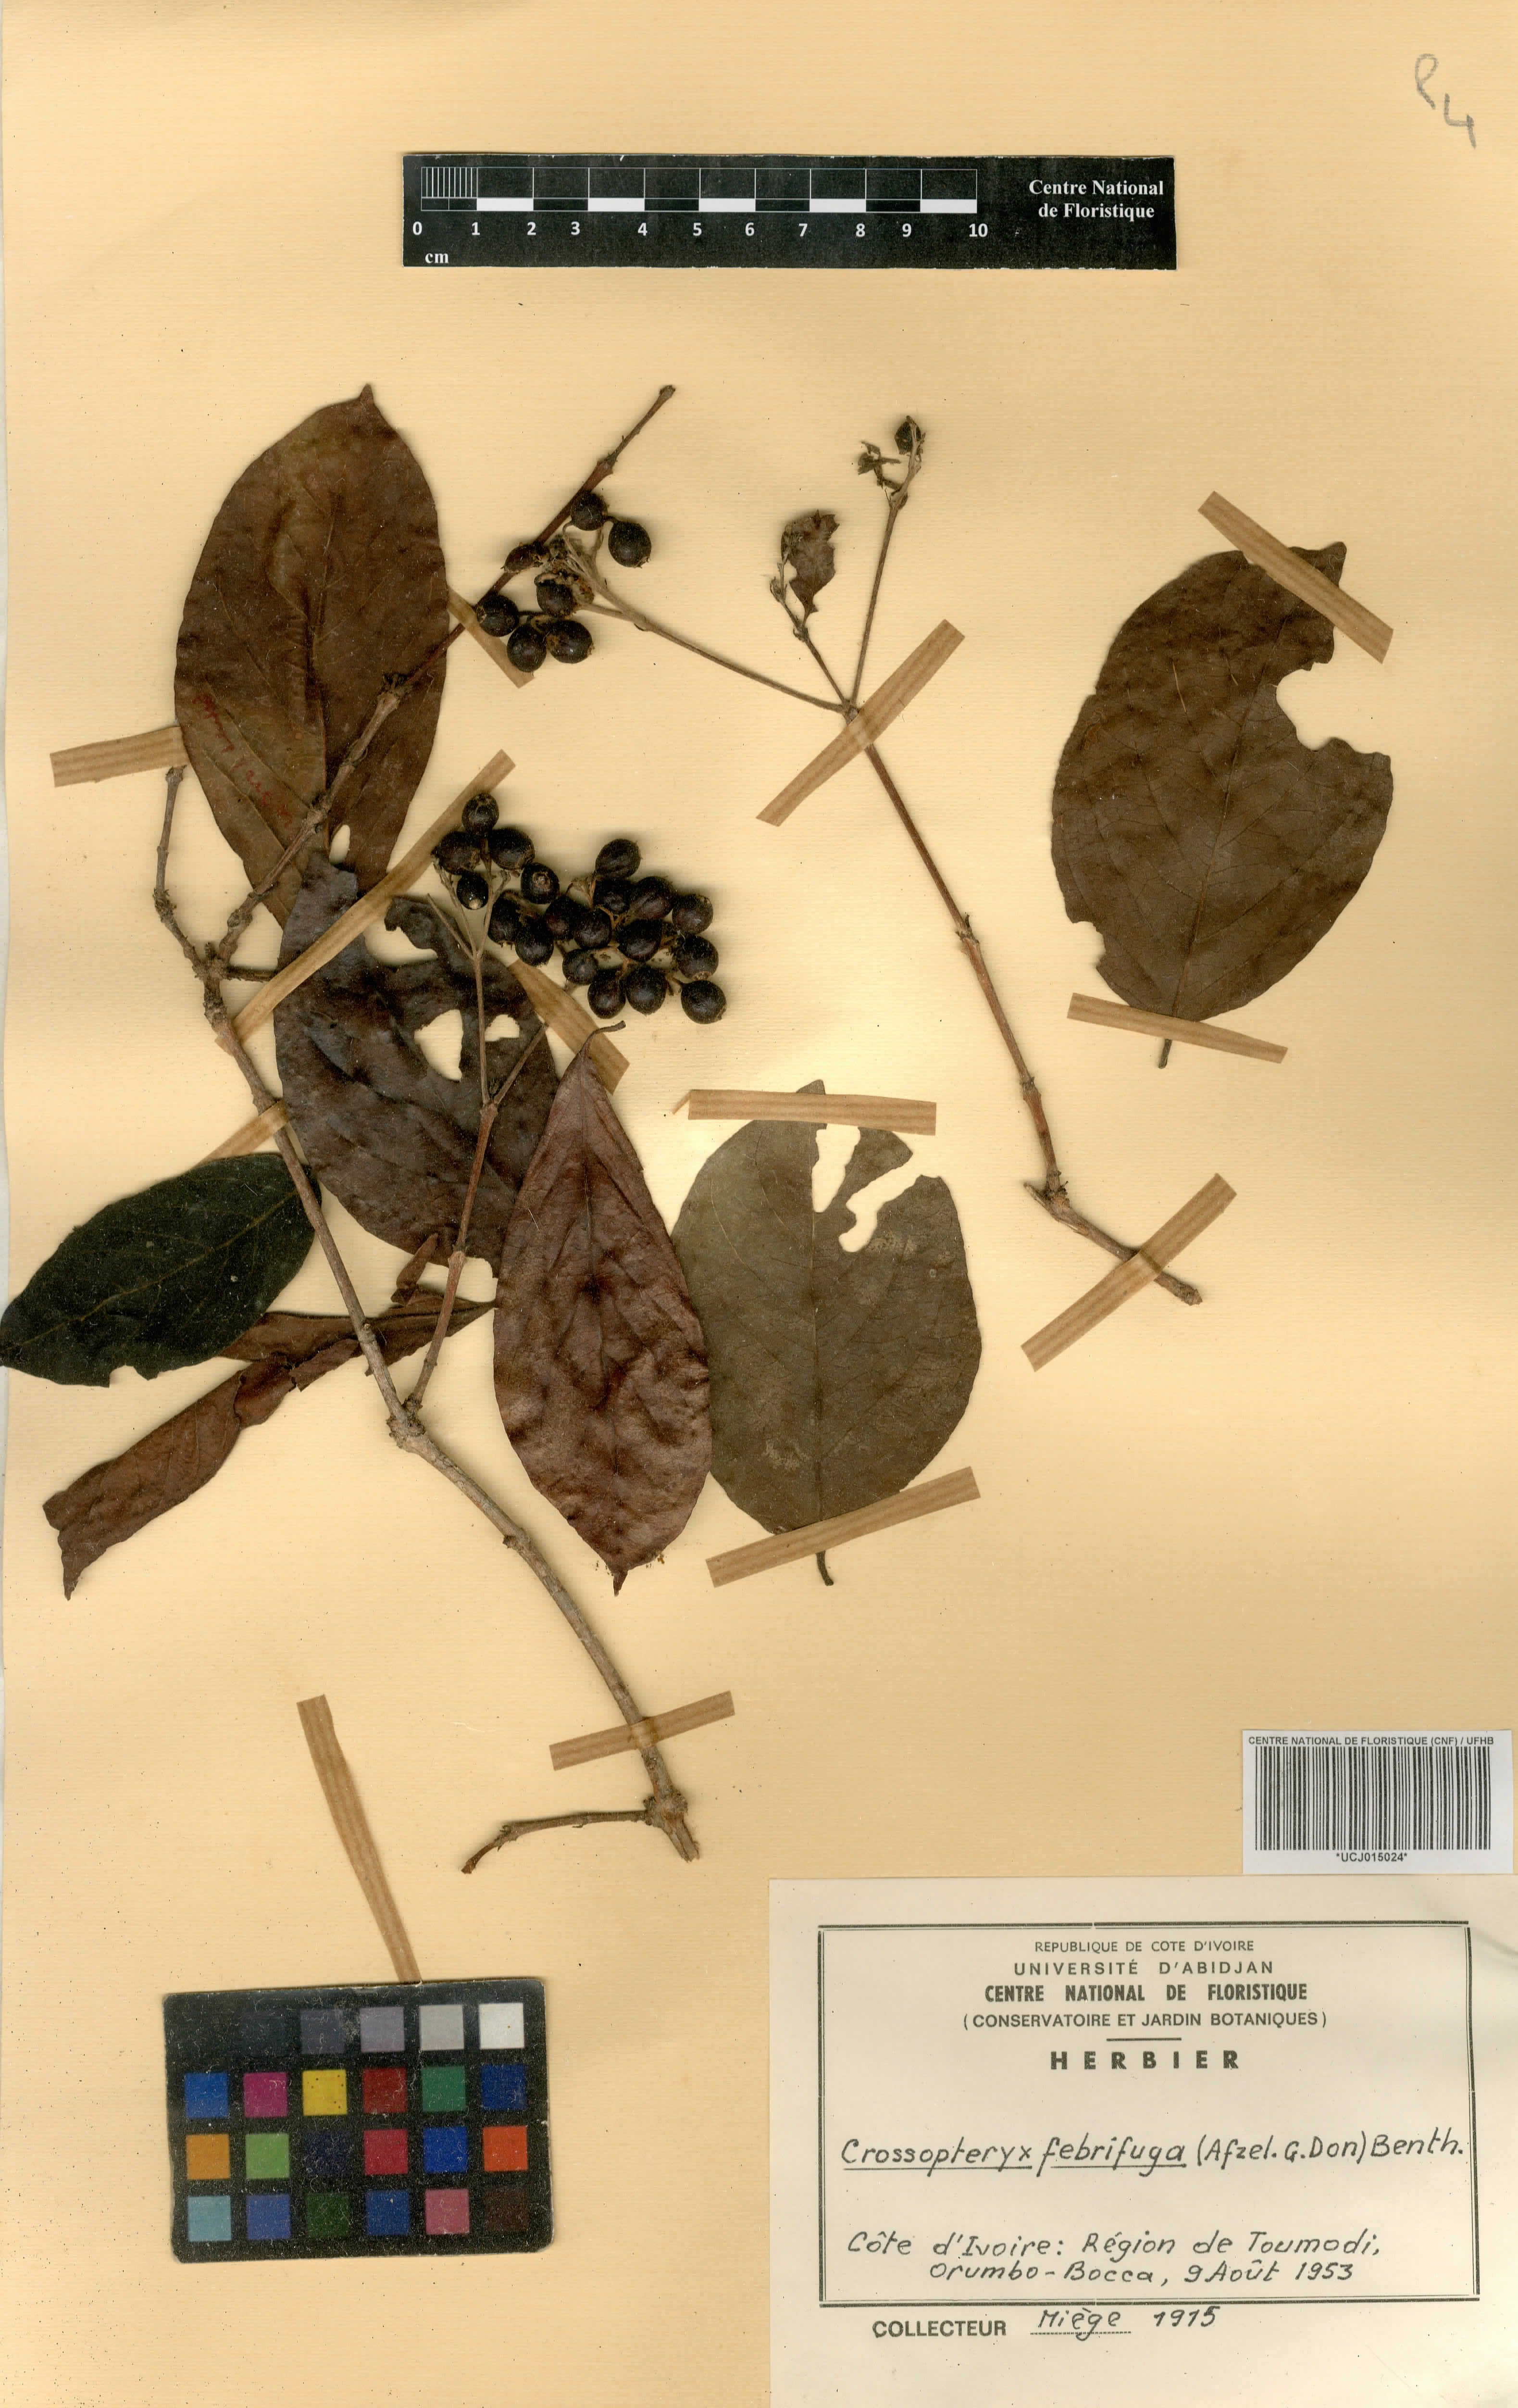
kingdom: Plantae
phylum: Tracheophyta
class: Magnoliopsida
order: Gentianales
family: Rubiaceae
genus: Crossopteryx
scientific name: Crossopteryx febrifuga
